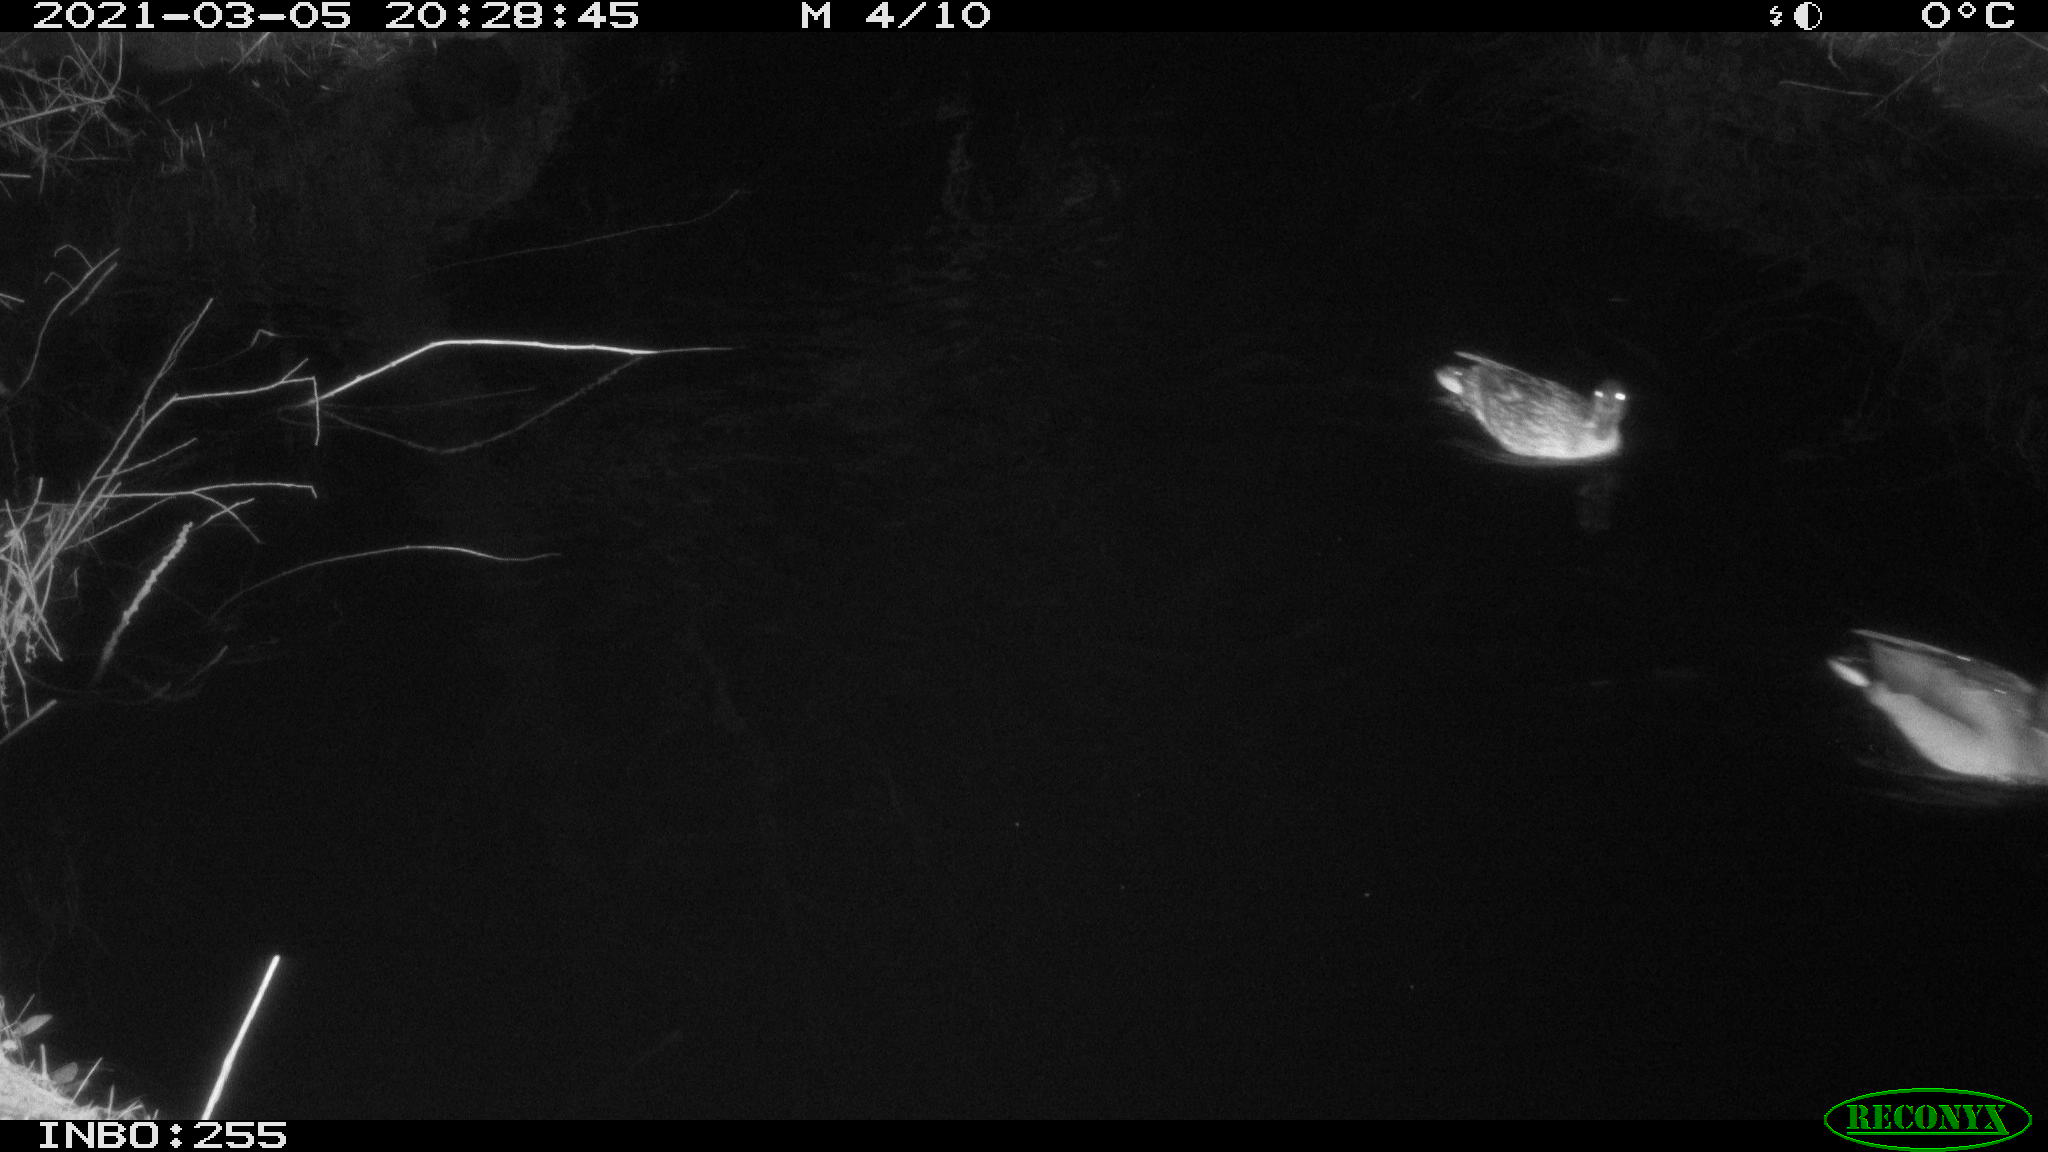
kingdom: Animalia
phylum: Chordata
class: Aves
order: Anseriformes
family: Anatidae
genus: Anas
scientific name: Anas platyrhynchos
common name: Mallard
